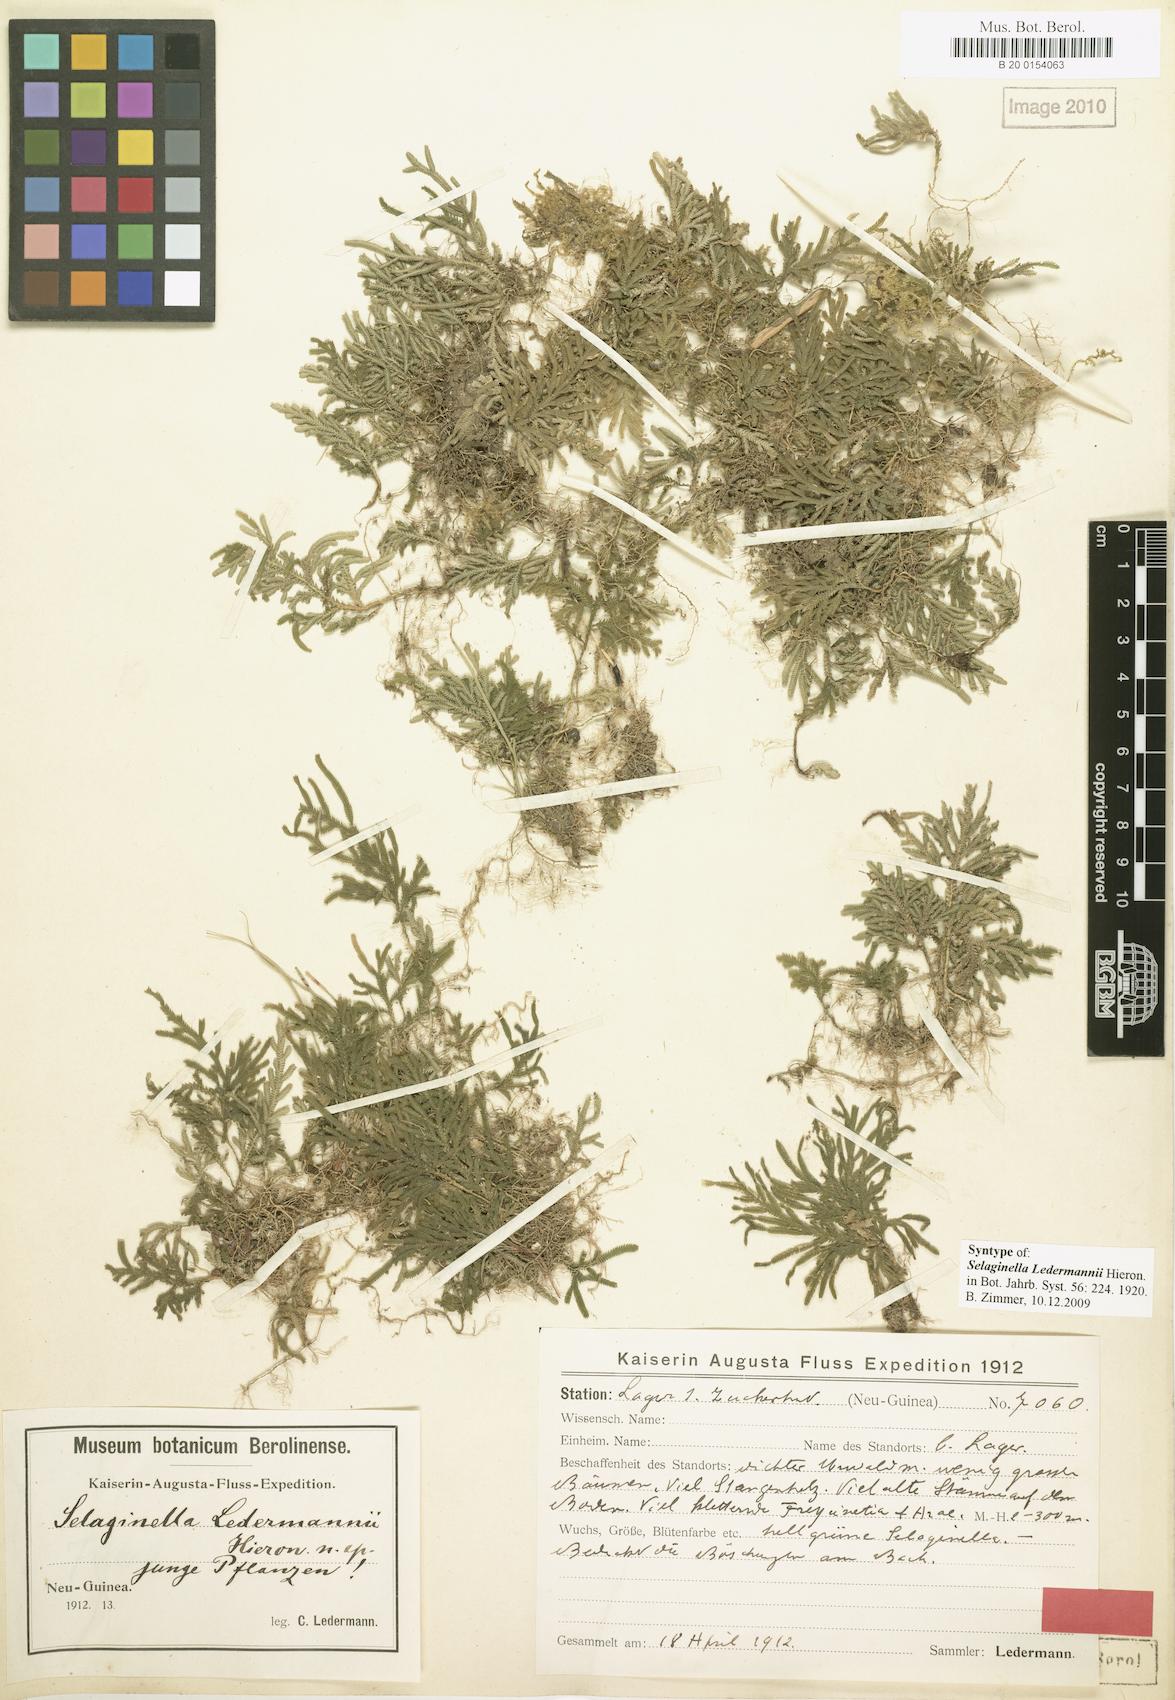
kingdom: Plantae
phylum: Tracheophyta
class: Lycopodiopsida
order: Selaginellales
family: Selaginellaceae
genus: Selaginella
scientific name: Selaginella ledermannii
